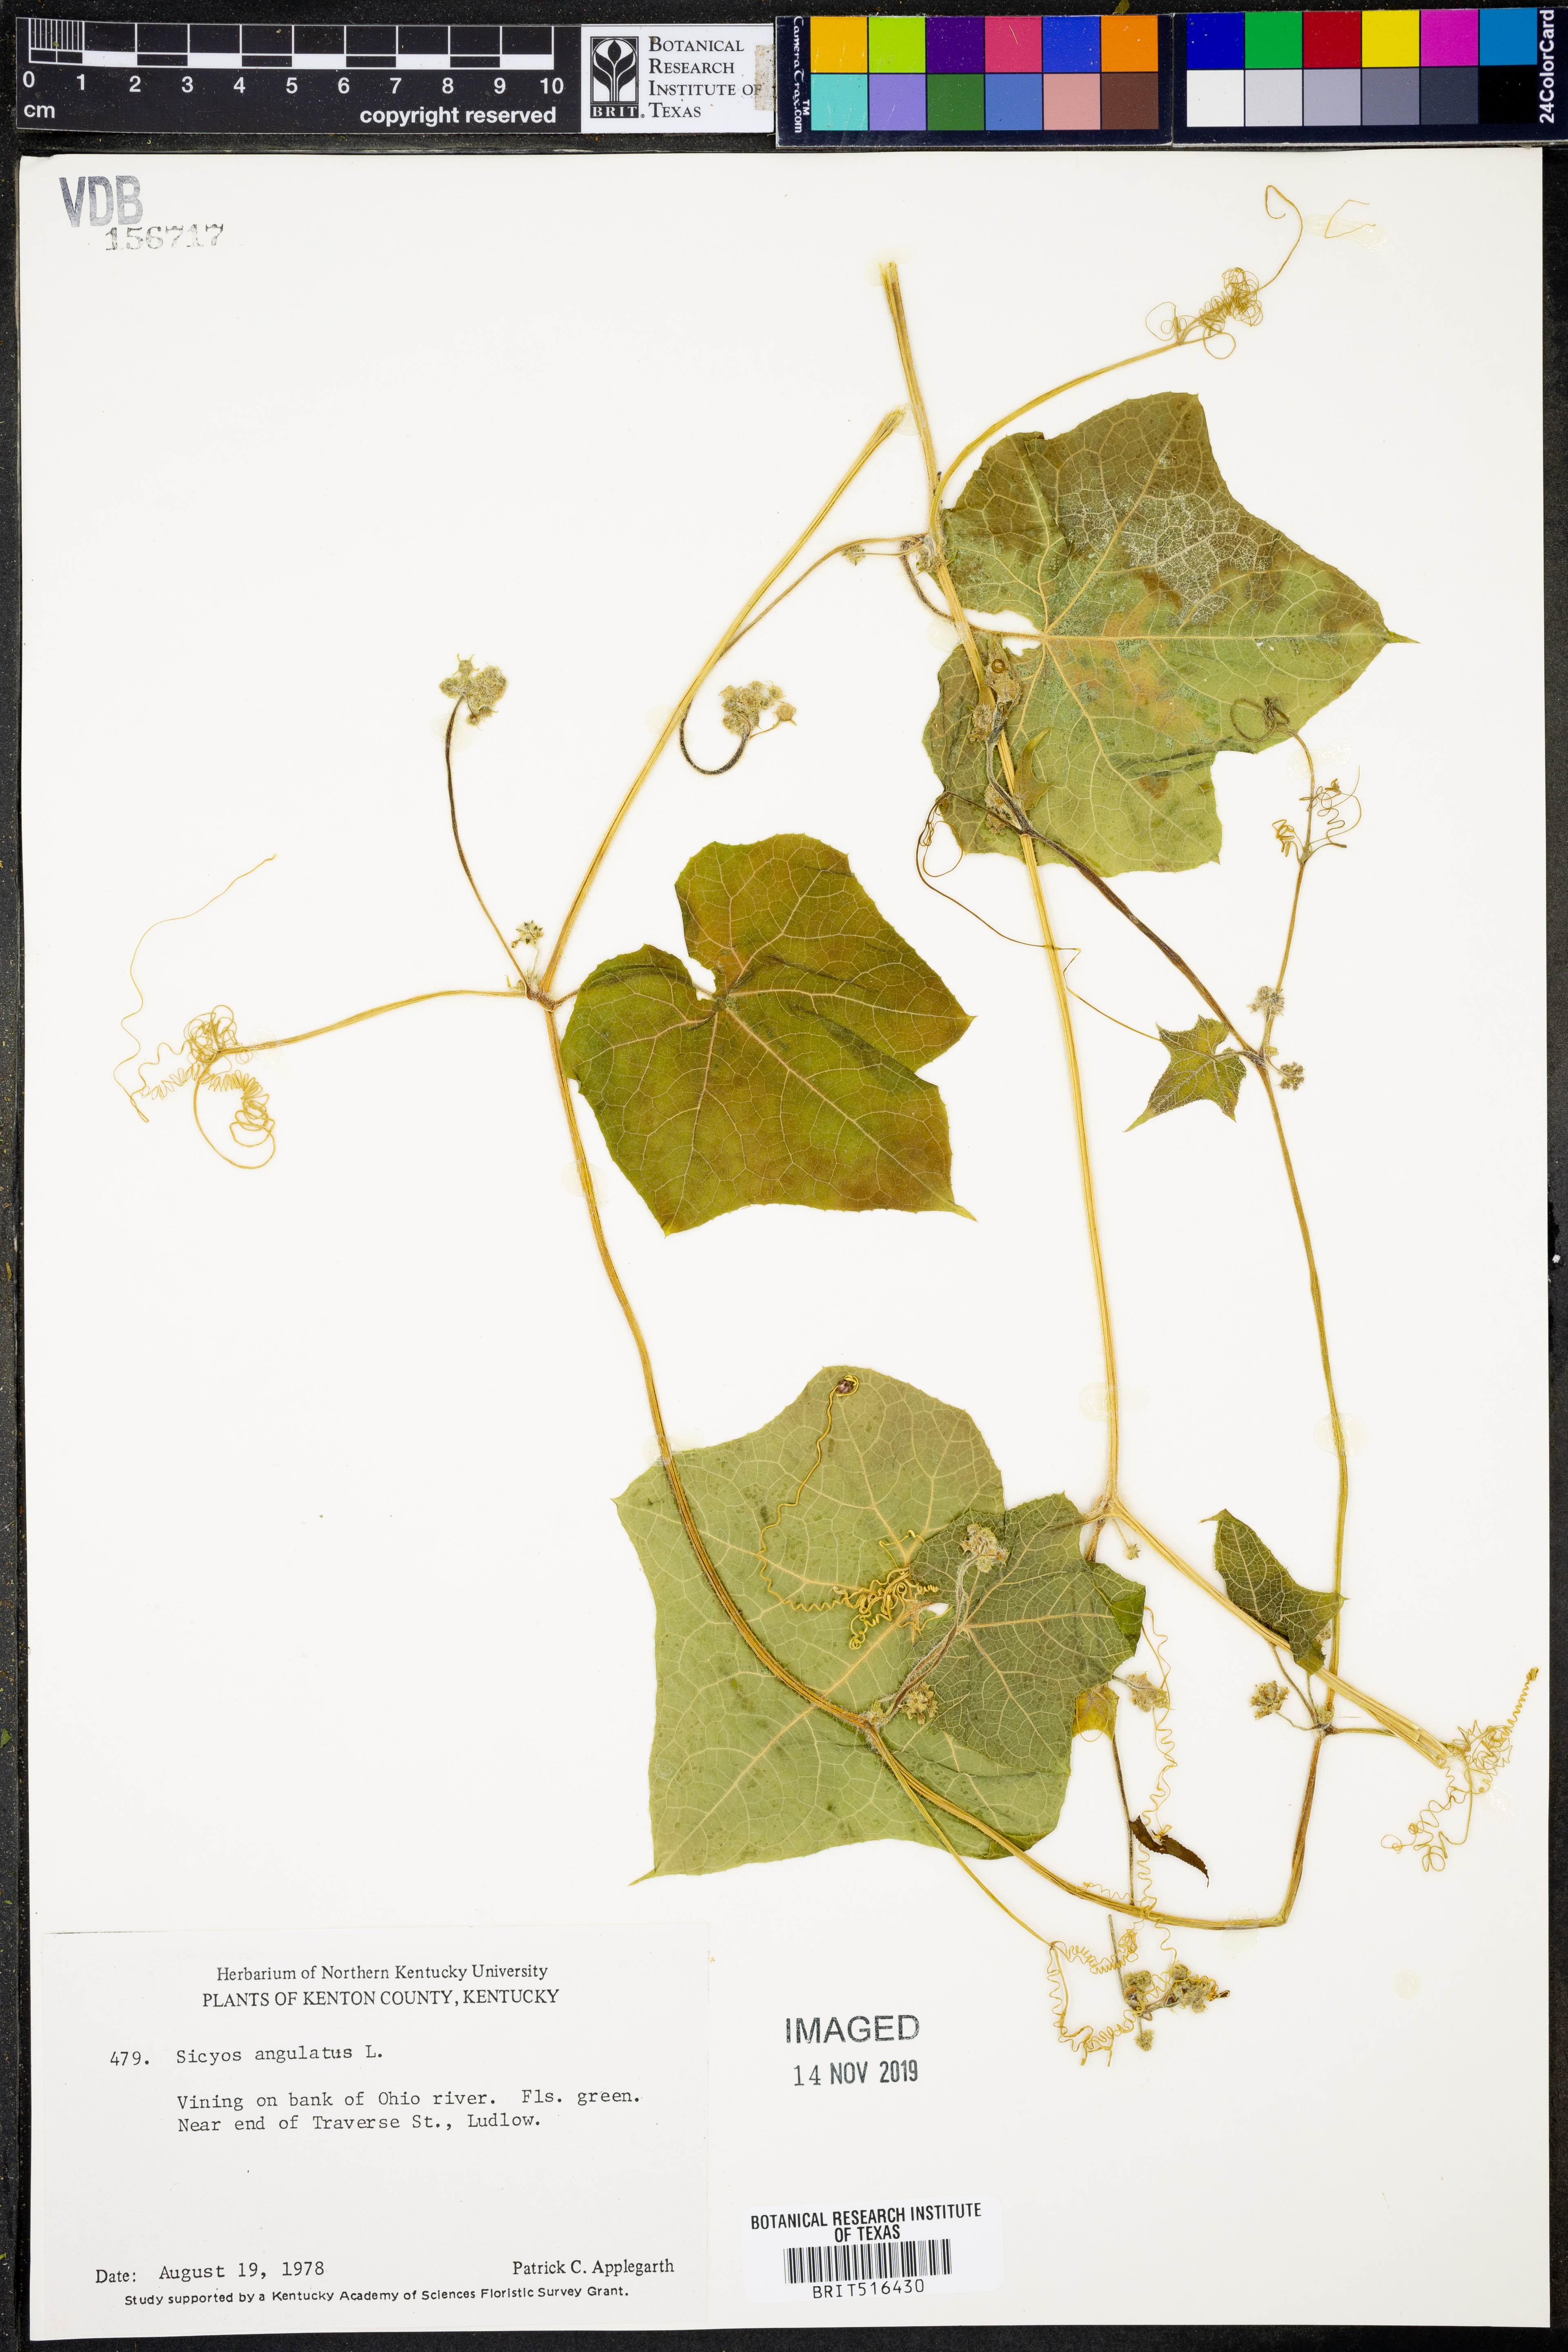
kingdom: Plantae
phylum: Tracheophyta
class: Magnoliopsida
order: Cucurbitales
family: Cucurbitaceae
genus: Sicyos
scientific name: Sicyos angulatus
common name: Angled burr cucumber
